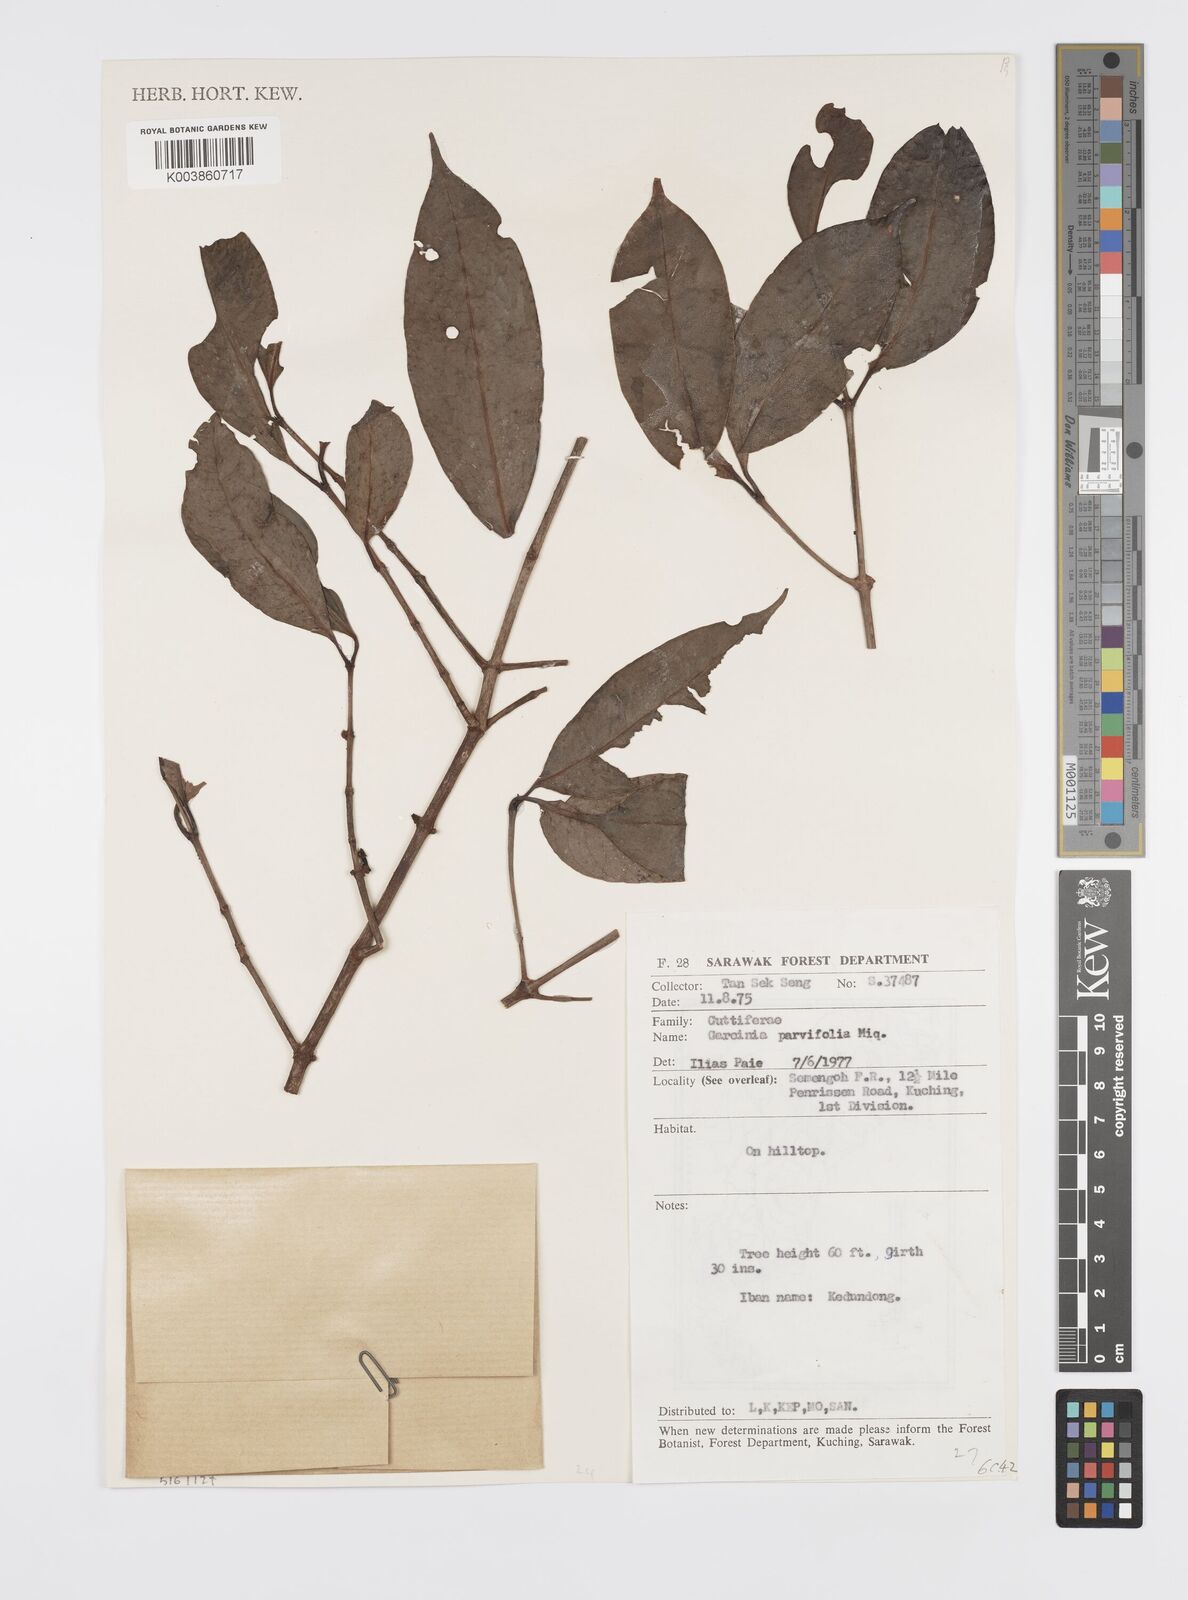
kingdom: Plantae
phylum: Tracheophyta
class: Magnoliopsida
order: Malpighiales
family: Clusiaceae
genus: Garcinia
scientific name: Garcinia parvifolia
